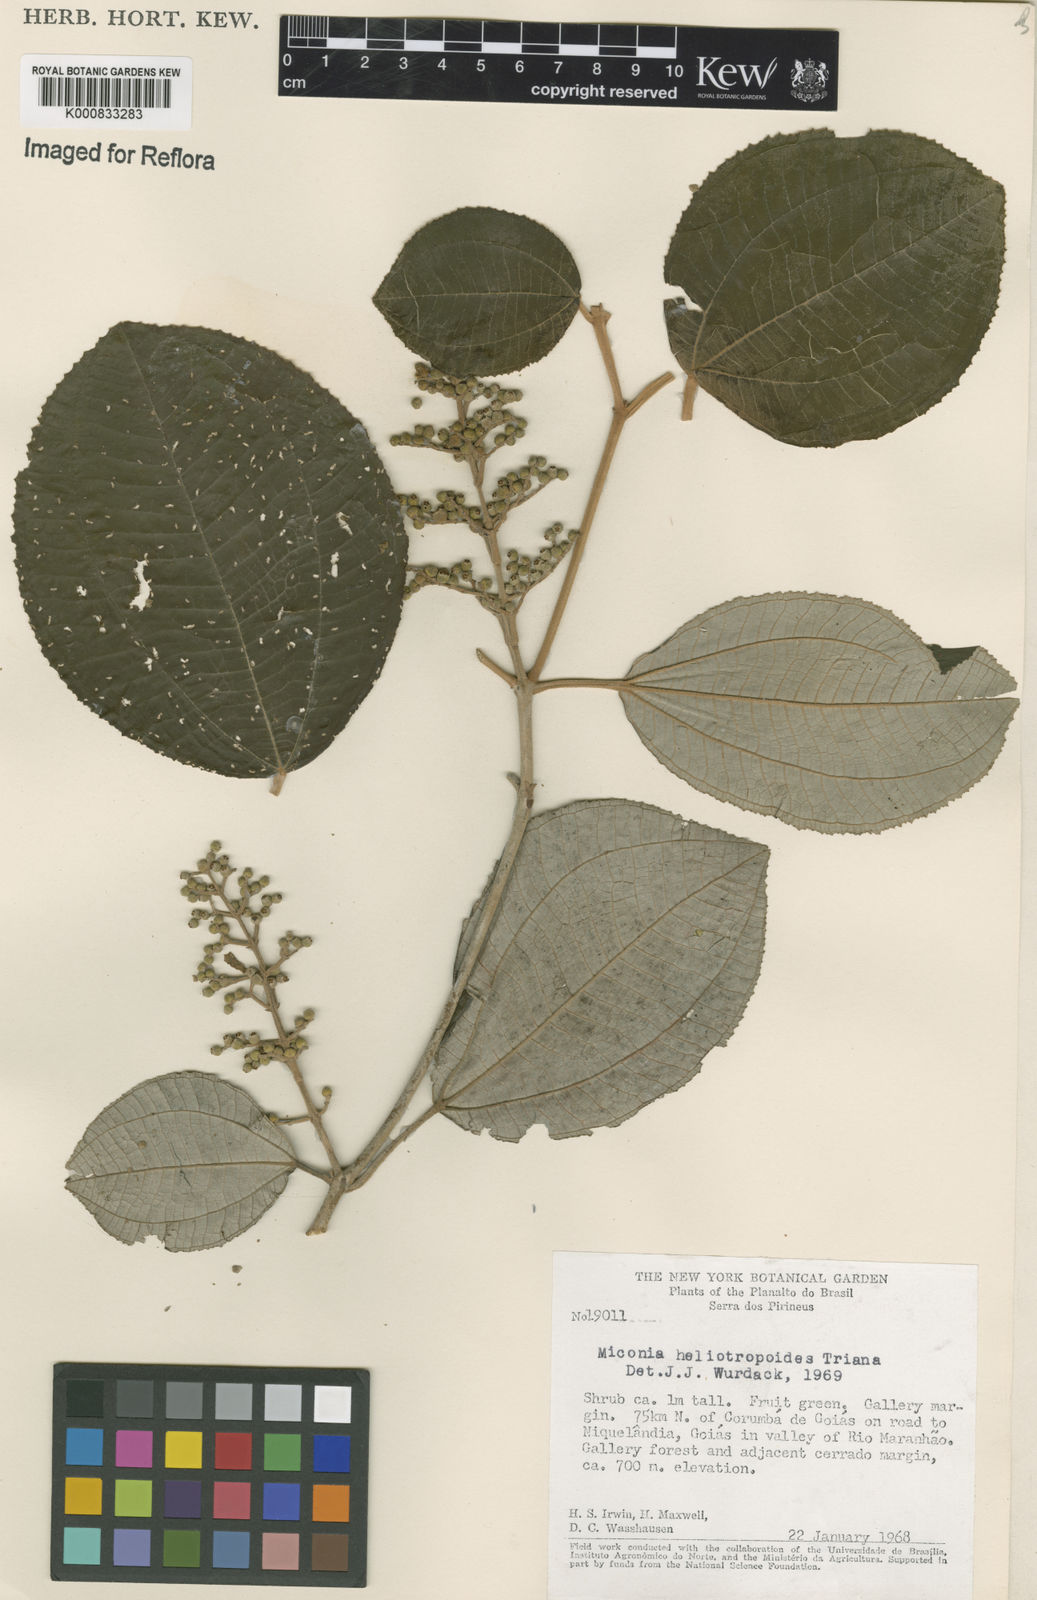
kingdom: Plantae
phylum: Tracheophyta
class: Magnoliopsida
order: Myrtales
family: Melastomataceae
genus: Miconia
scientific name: Miconia heliotropoides
